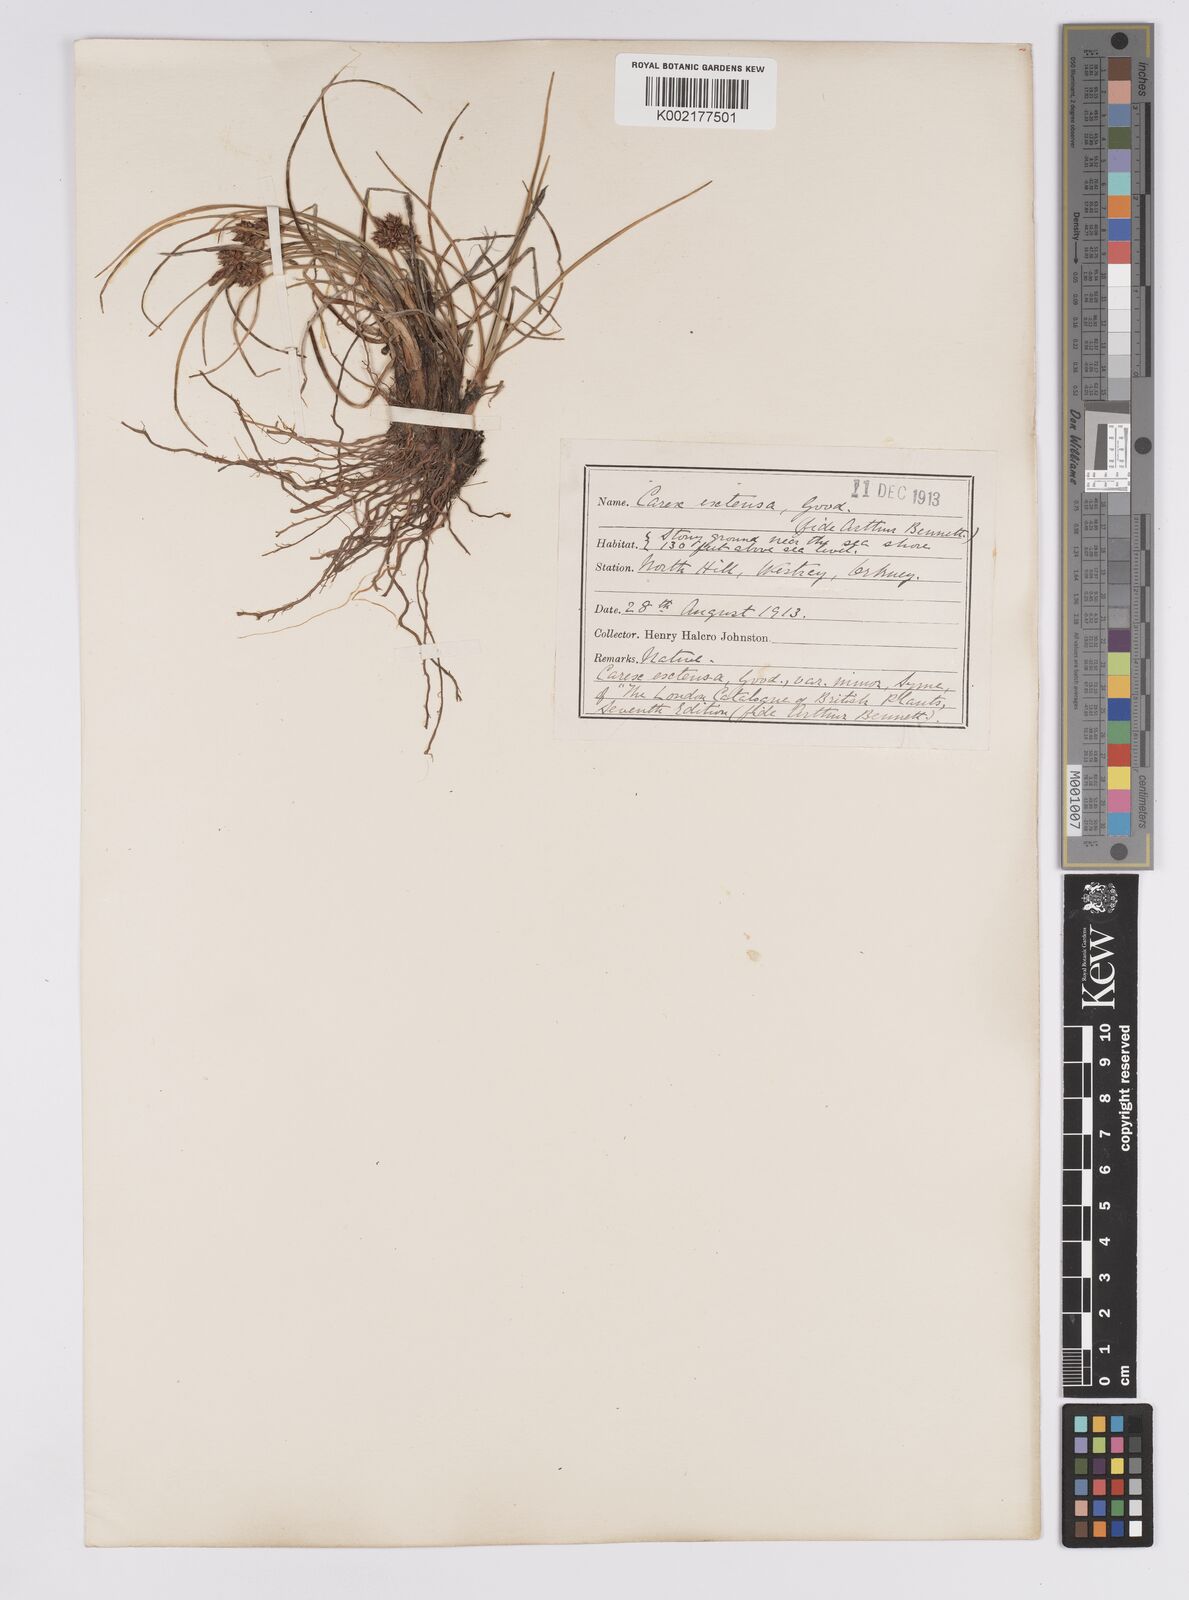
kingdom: Plantae
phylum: Tracheophyta
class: Liliopsida
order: Poales
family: Cyperaceae
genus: Carex
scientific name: Carex extensa
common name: Long-bracted sedge
